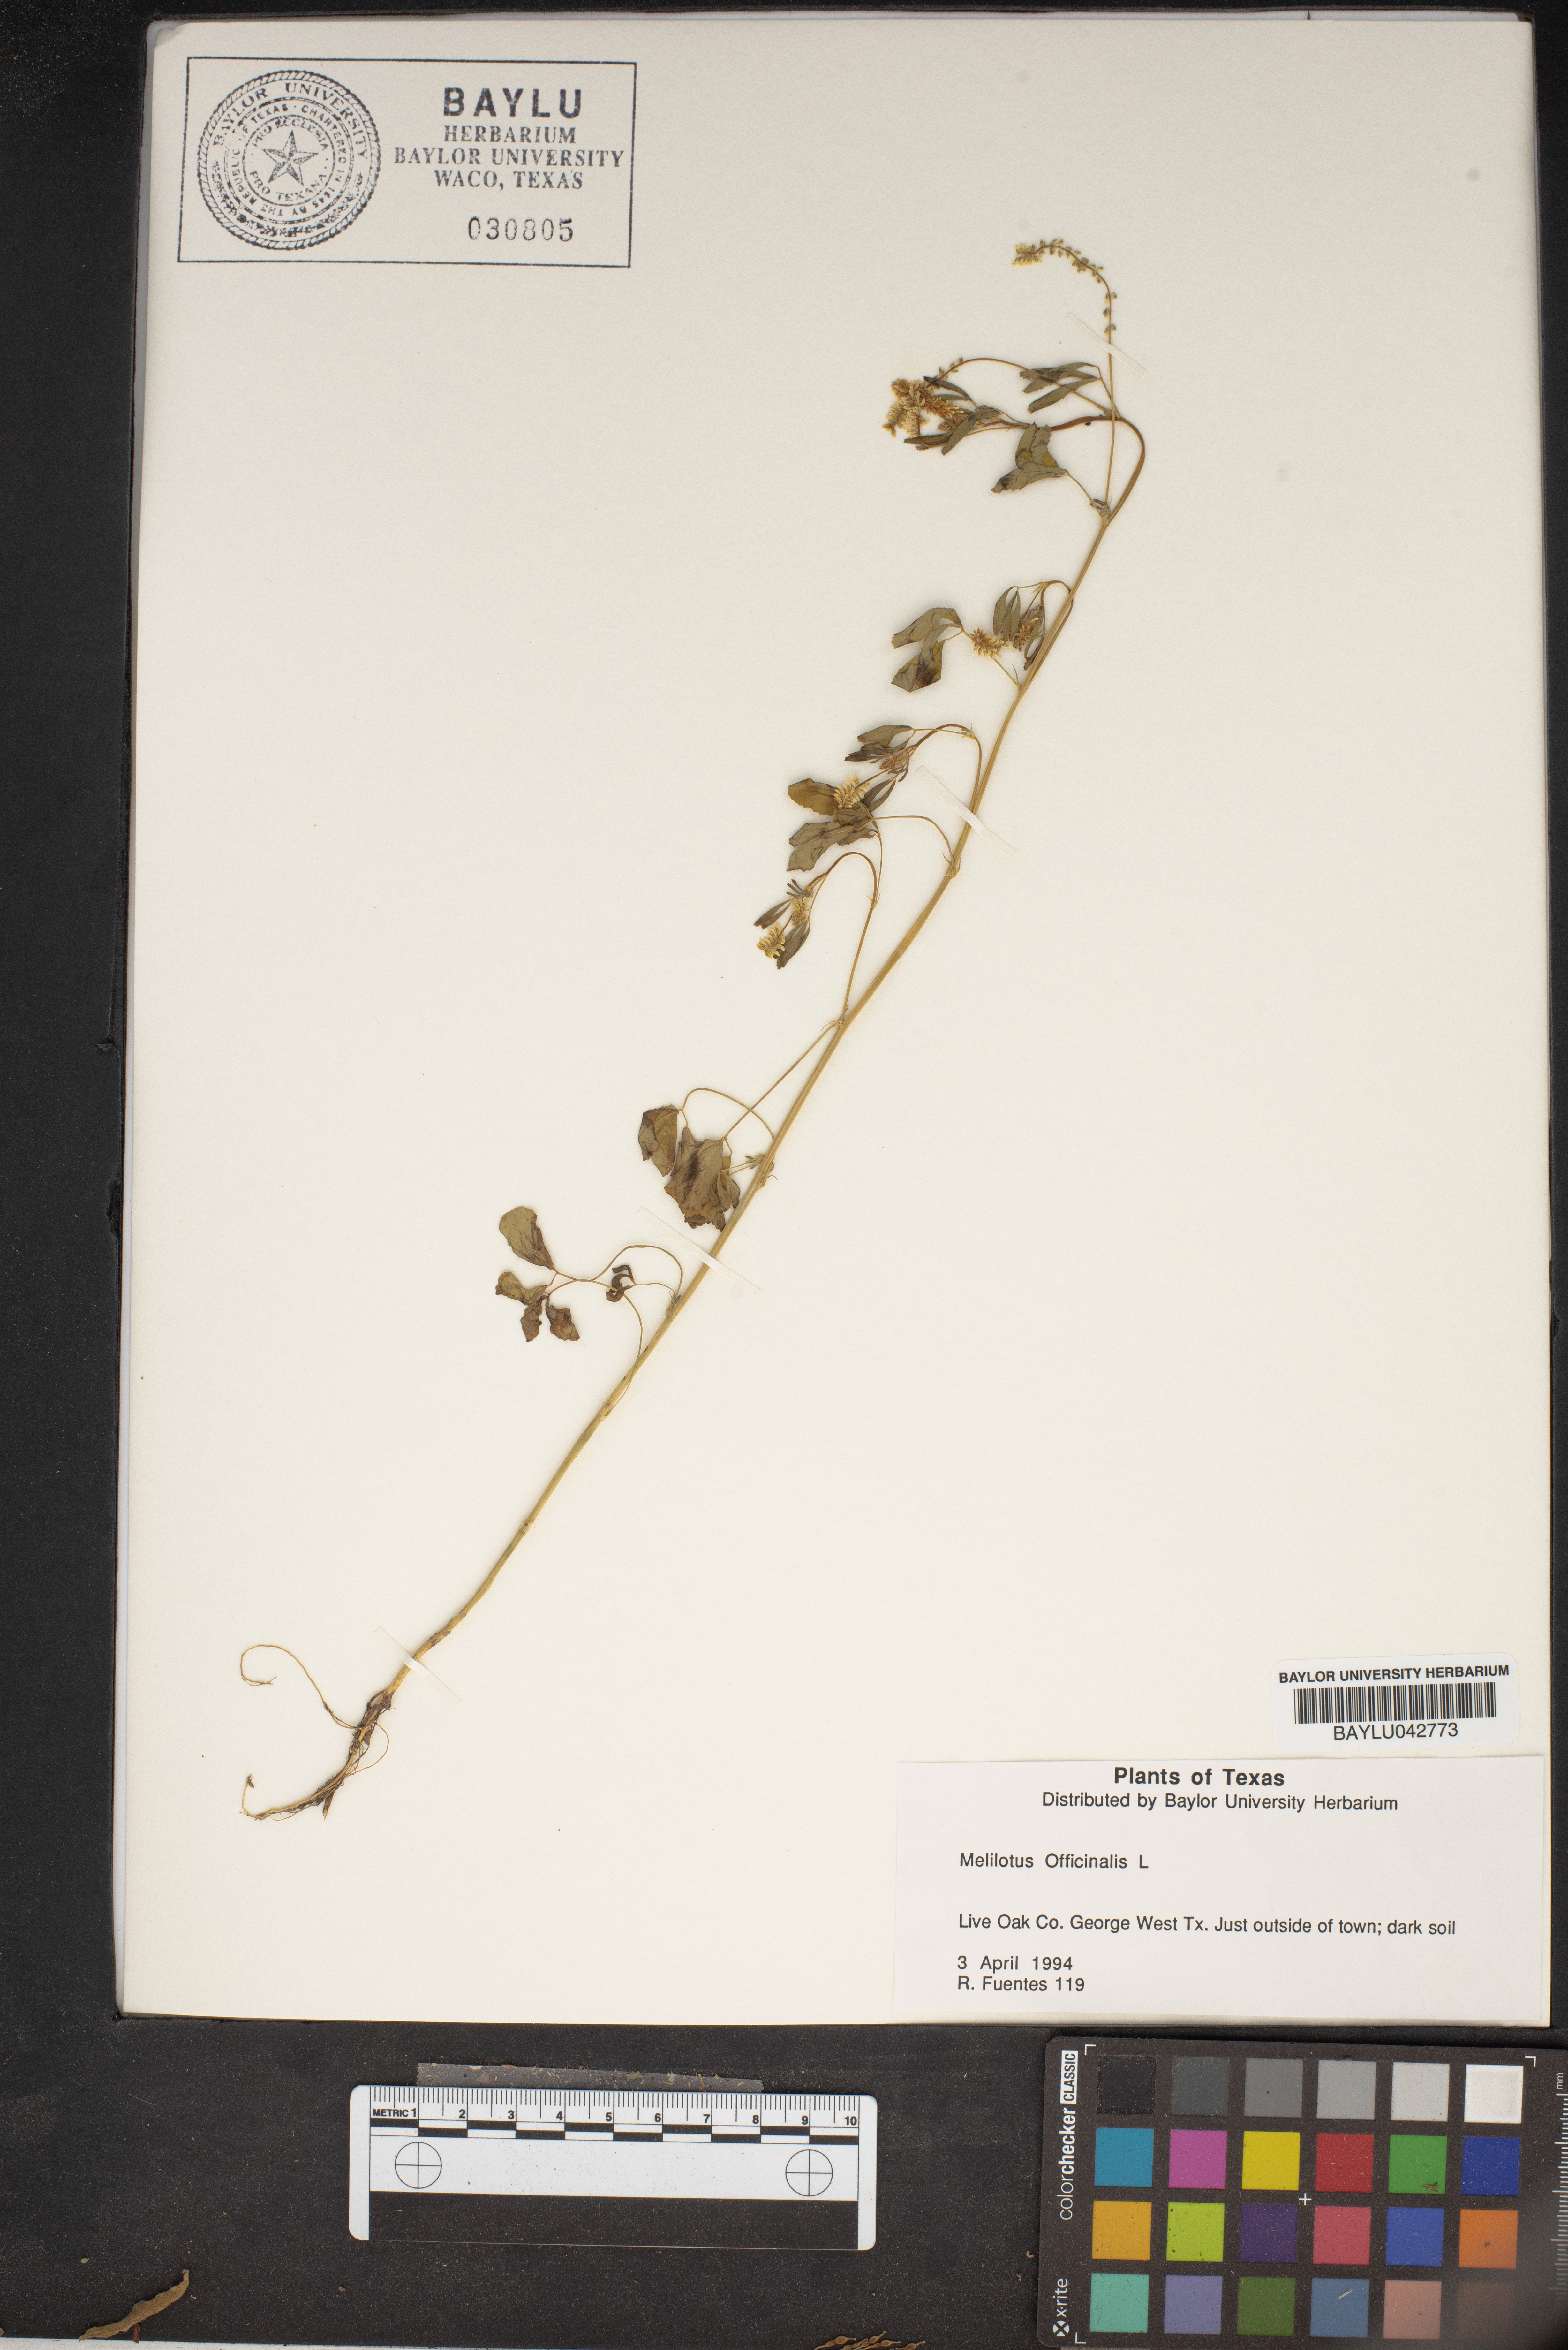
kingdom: Plantae
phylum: Tracheophyta
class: Magnoliopsida
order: Fabales
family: Fabaceae
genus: Melilotus
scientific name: Melilotus officinalis
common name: Sweetclover
